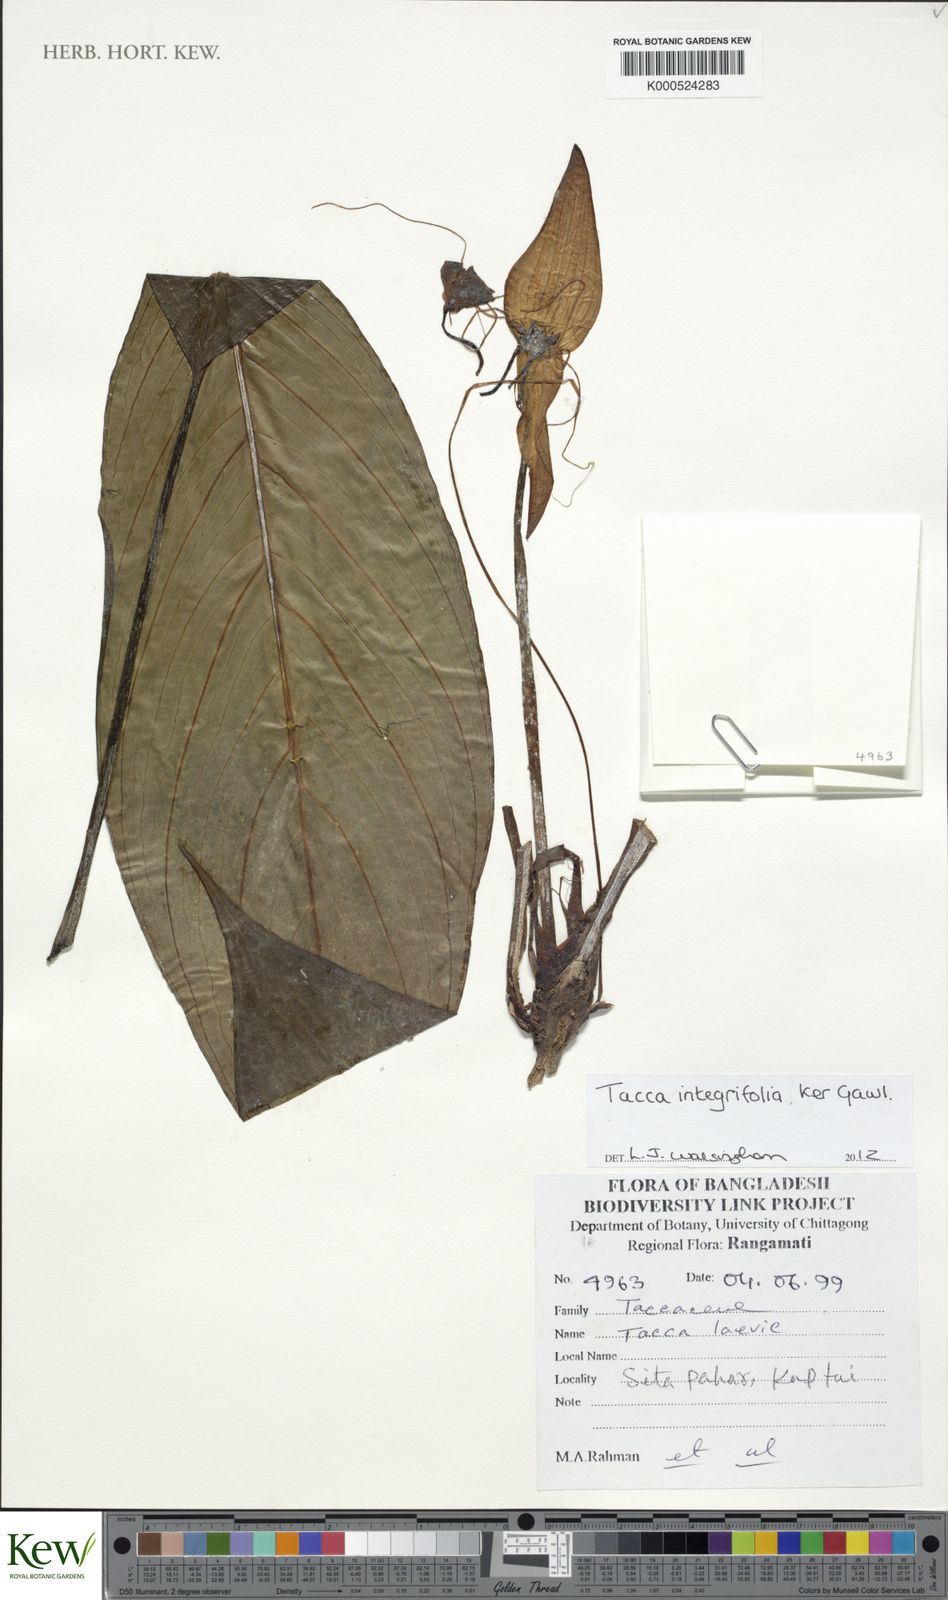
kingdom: Plantae
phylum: Tracheophyta
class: Liliopsida
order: Dioscoreales
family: Dioscoreaceae
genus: Tacca
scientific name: Tacca integrifolia
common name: Batplant
